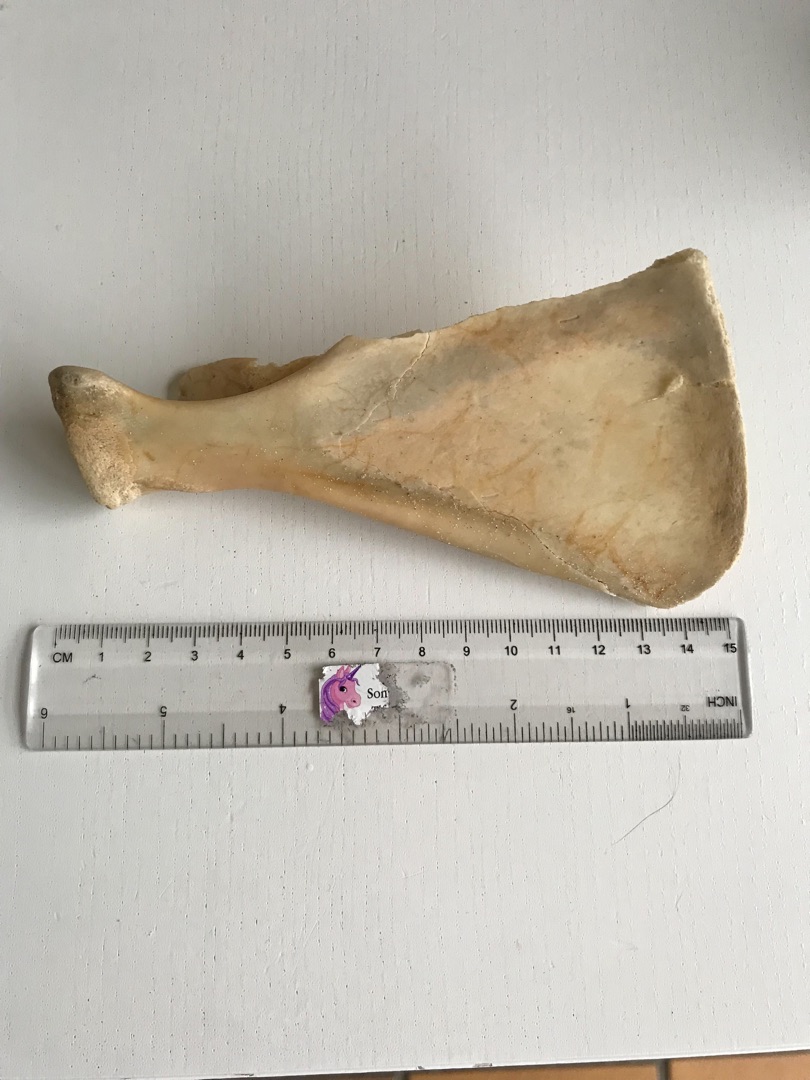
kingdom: Animalia
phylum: Chordata
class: Mammalia
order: Artiodactyla
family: Cervidae
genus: Capreolus
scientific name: Capreolus capreolus
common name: Rådyr
